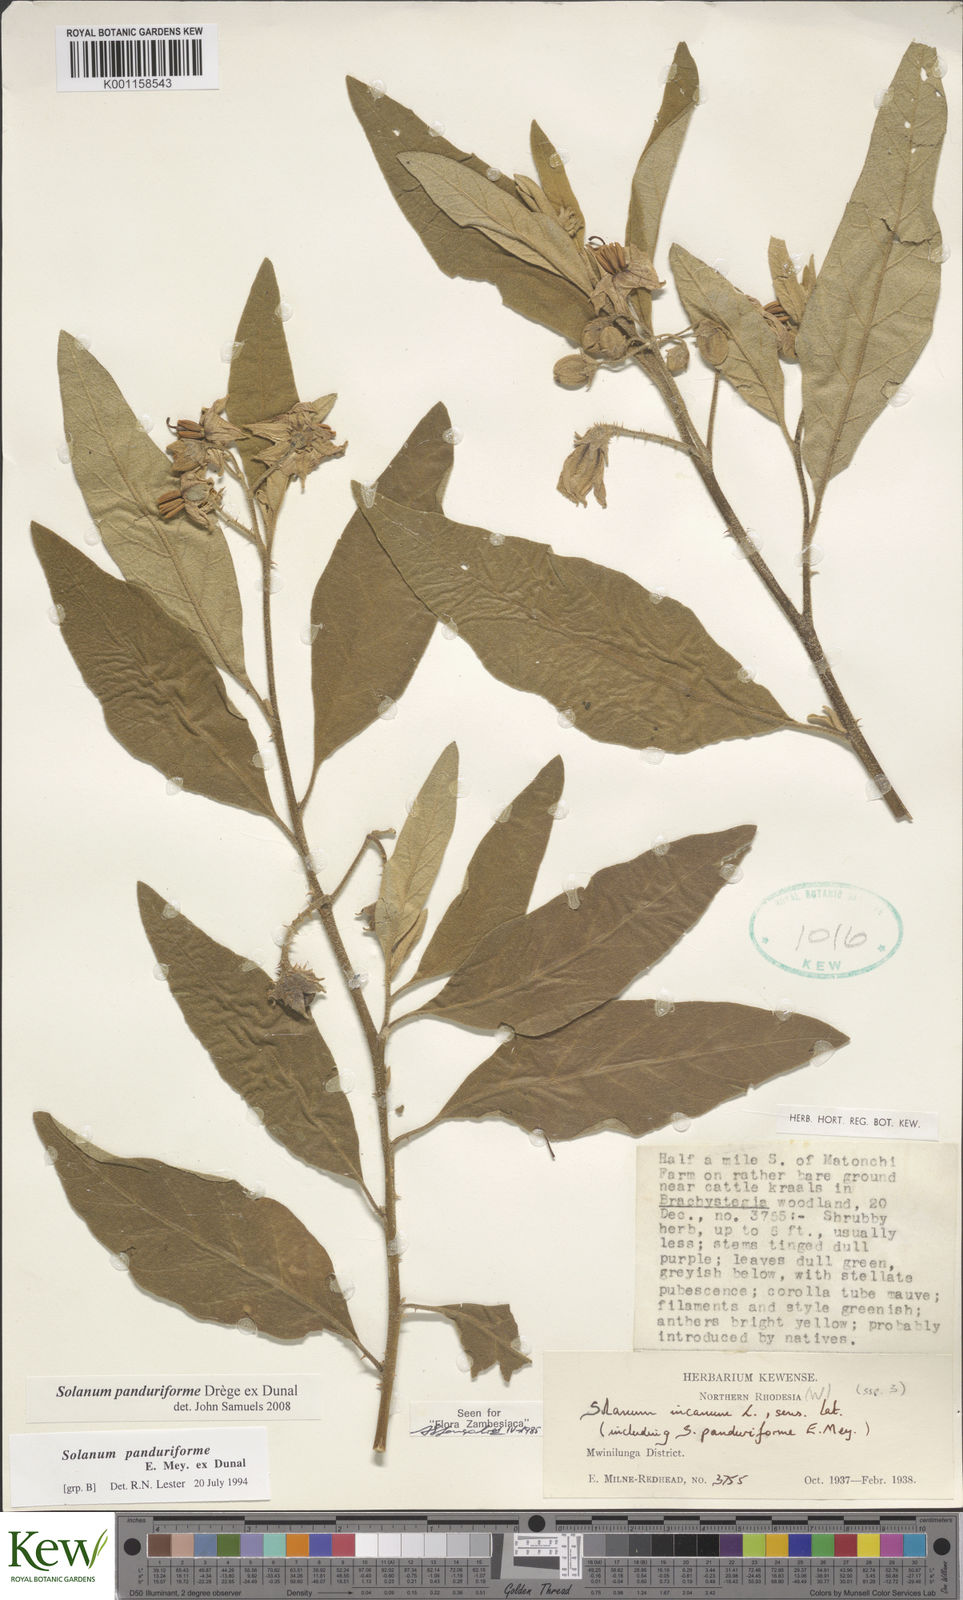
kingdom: Plantae
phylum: Tracheophyta
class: Magnoliopsida
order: Solanales
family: Solanaceae
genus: Solanum
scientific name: Solanum campylacanthum
